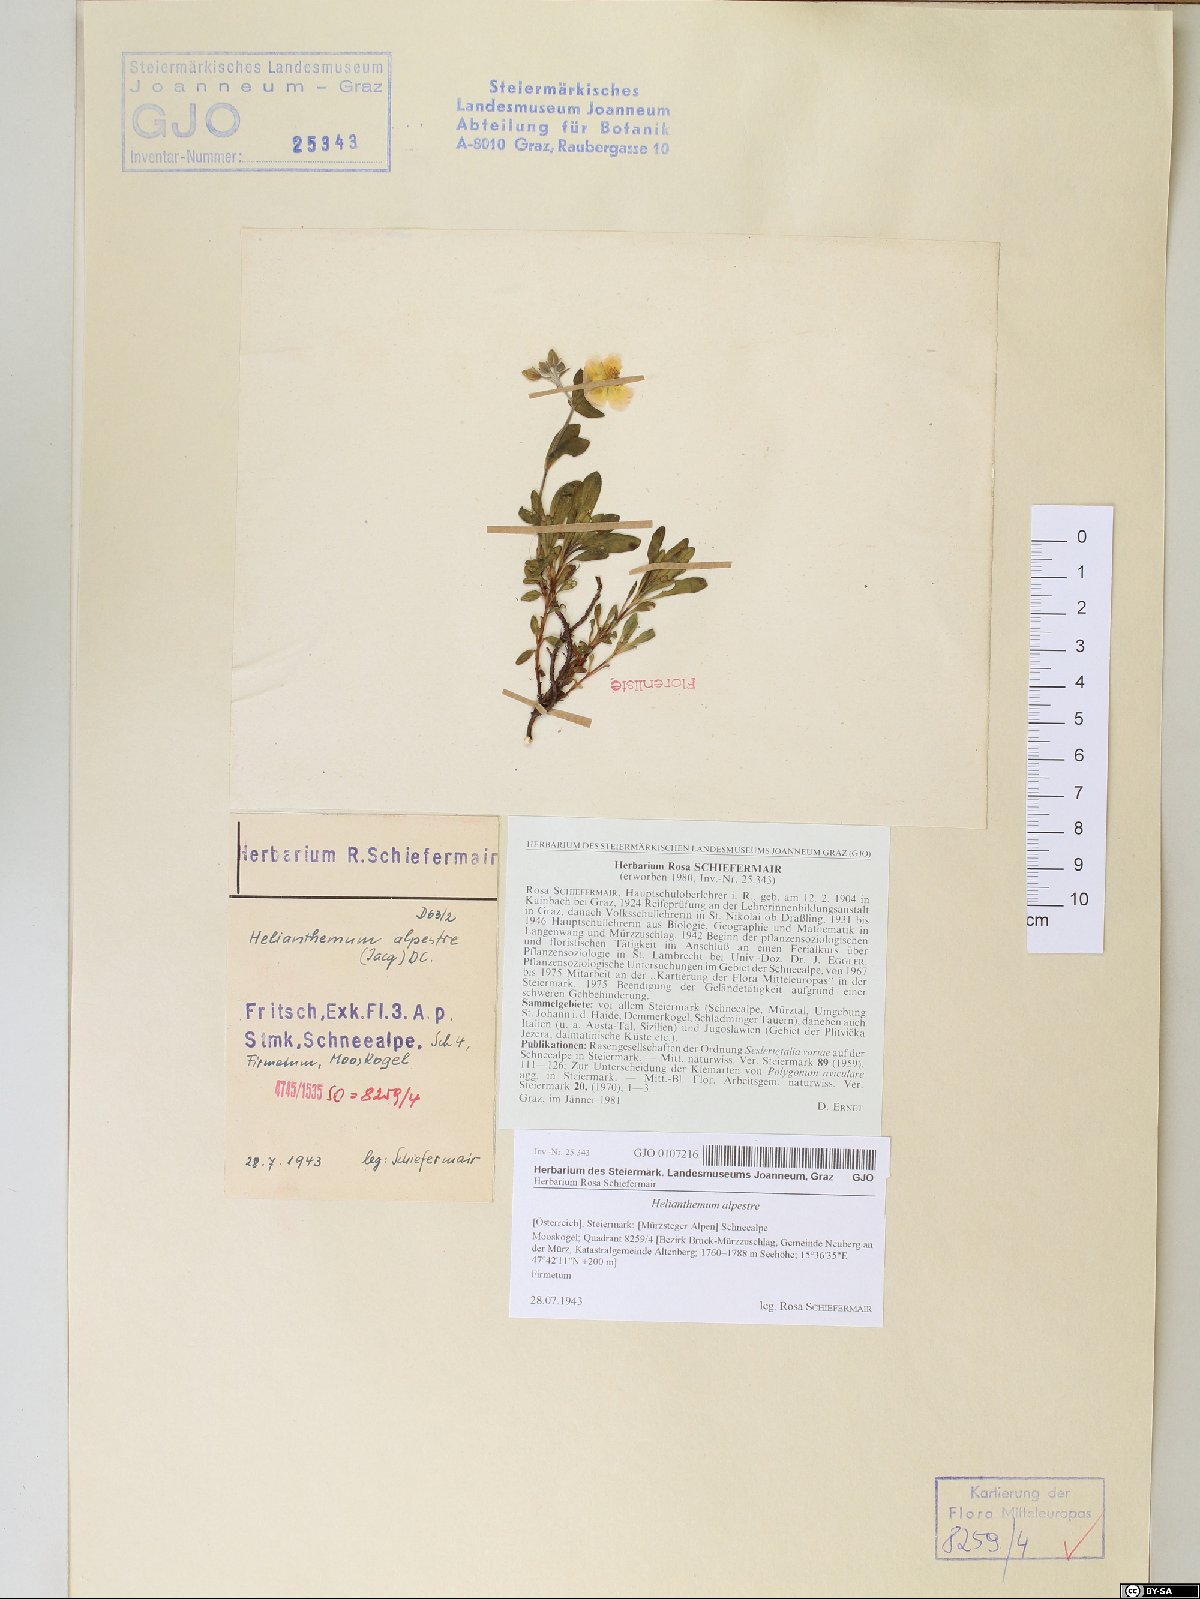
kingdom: Plantae
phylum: Tracheophyta
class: Magnoliopsida
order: Malvales
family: Cistaceae
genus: Helianthemum
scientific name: Helianthemum alpestre
